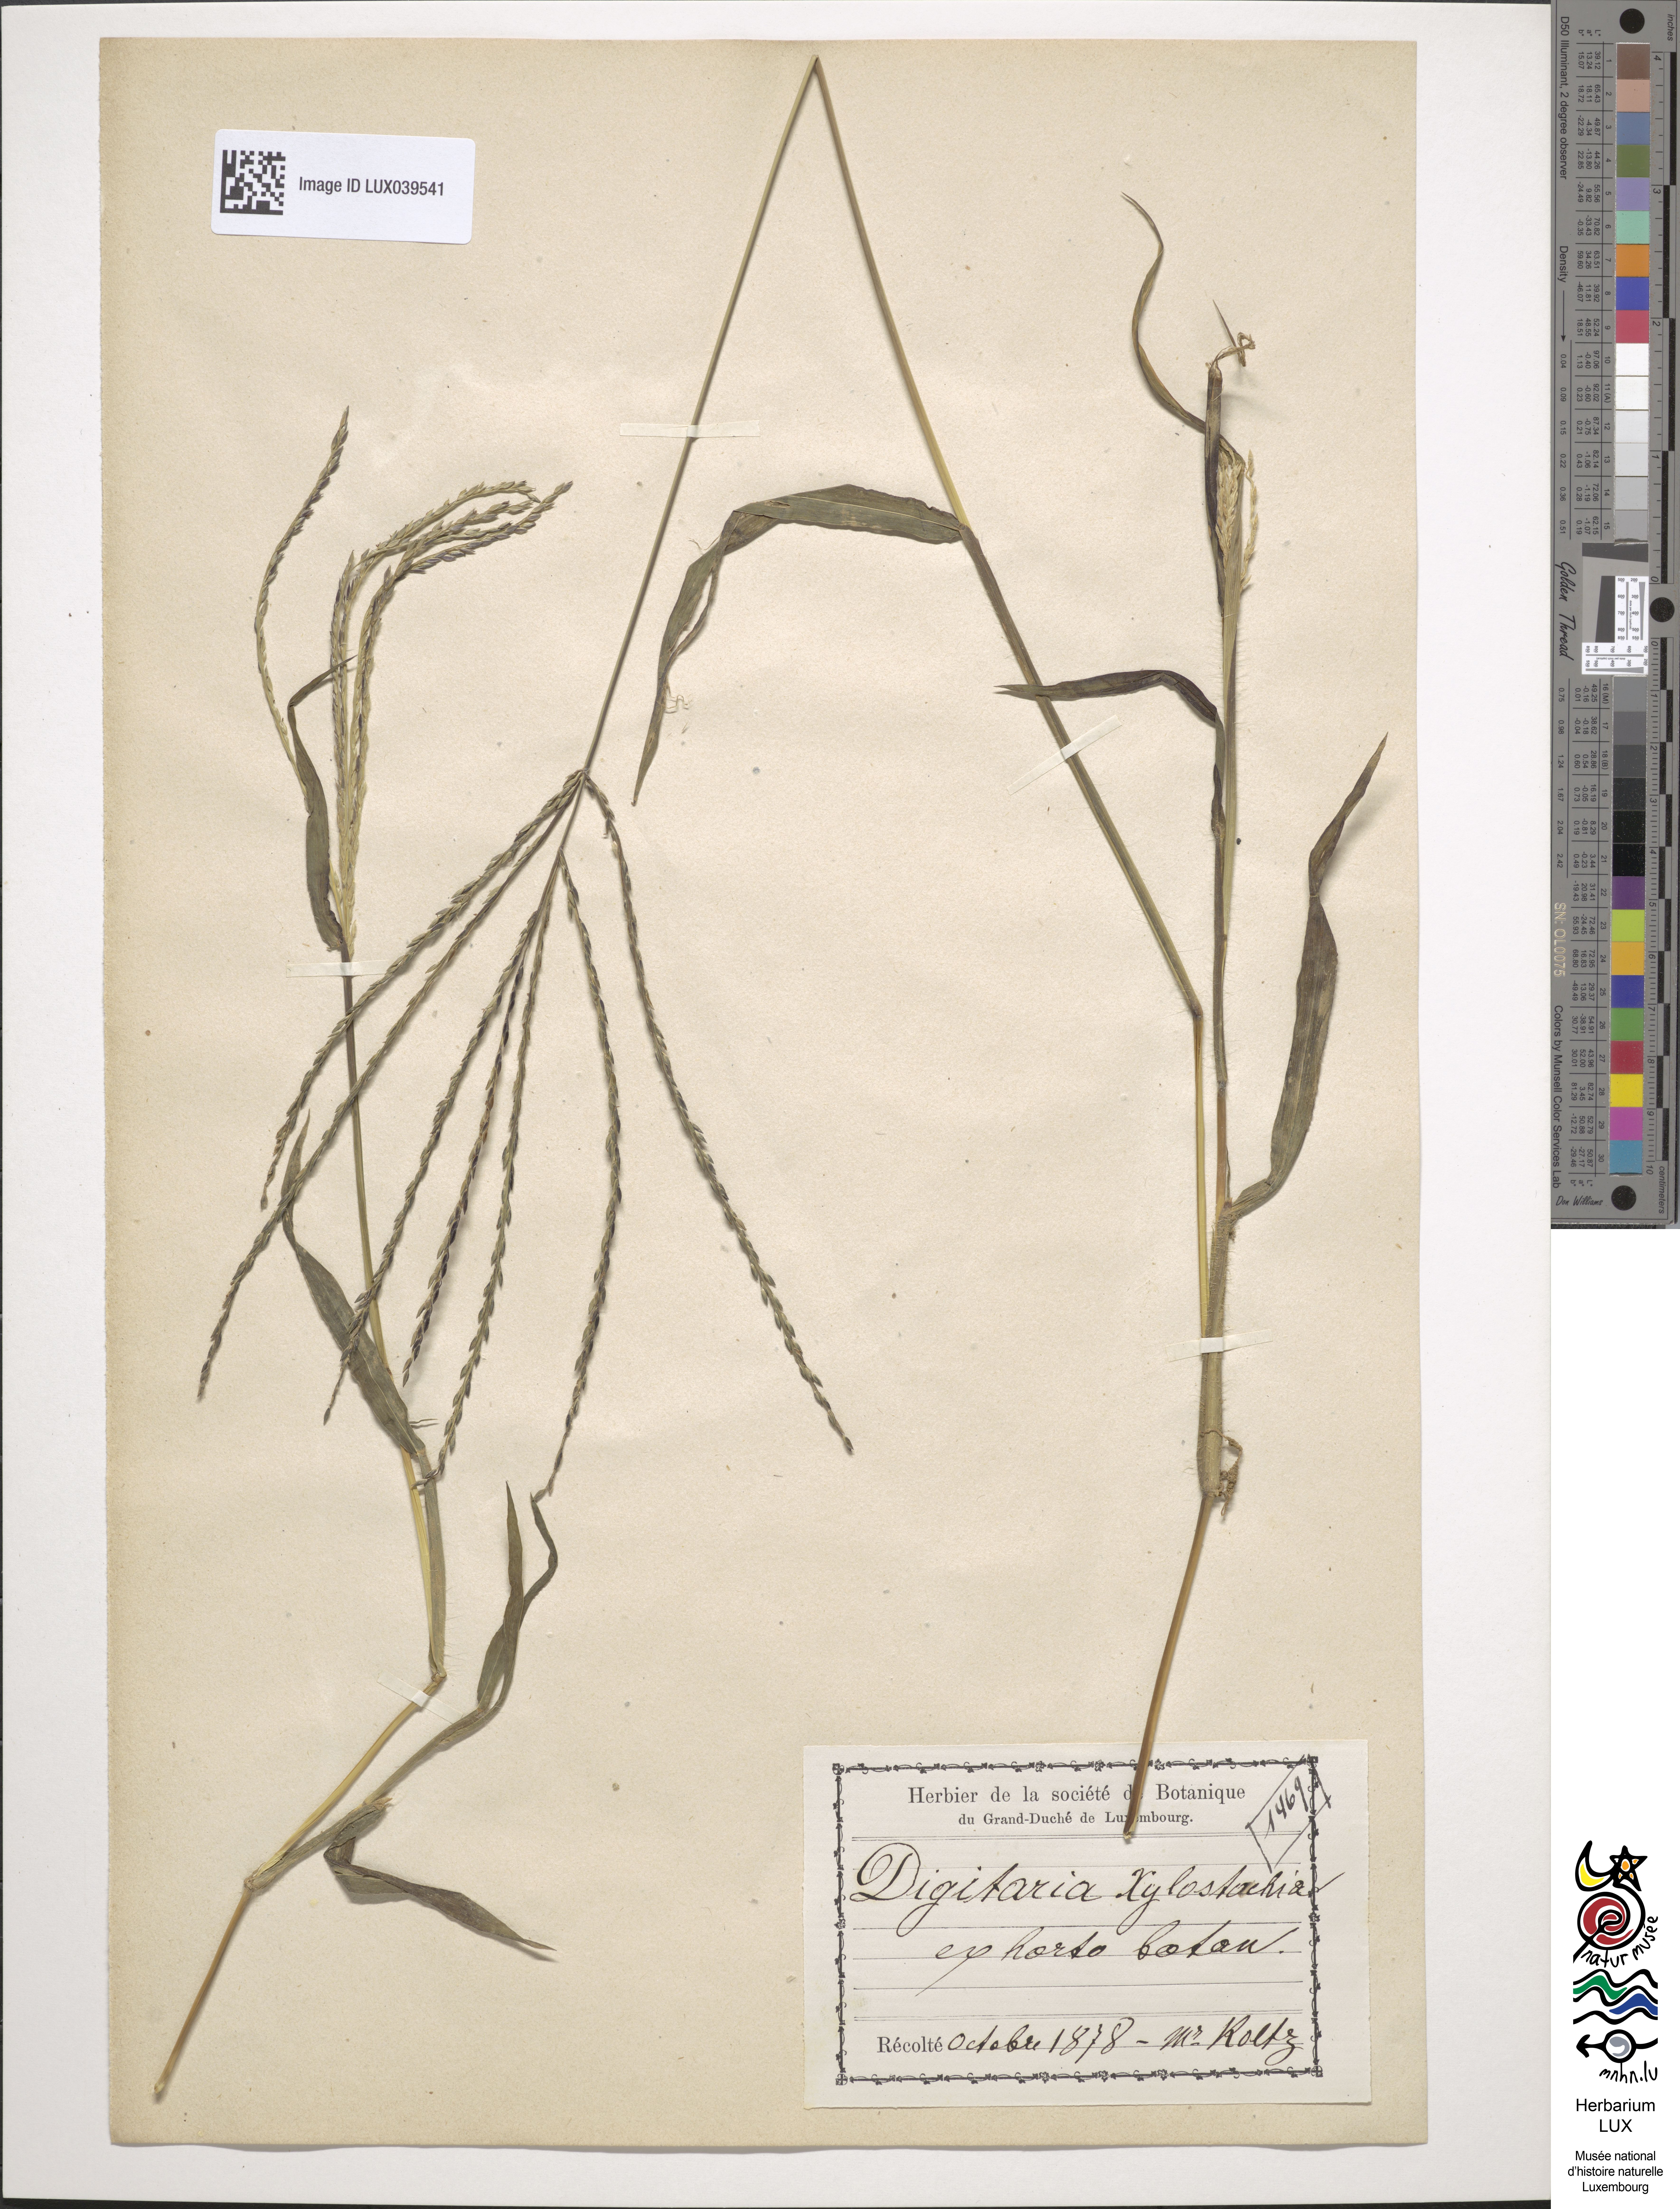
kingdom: Plantae
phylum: Tracheophyta
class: Liliopsida
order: Poales
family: Poaceae
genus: Digitaria
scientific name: Digitaria
